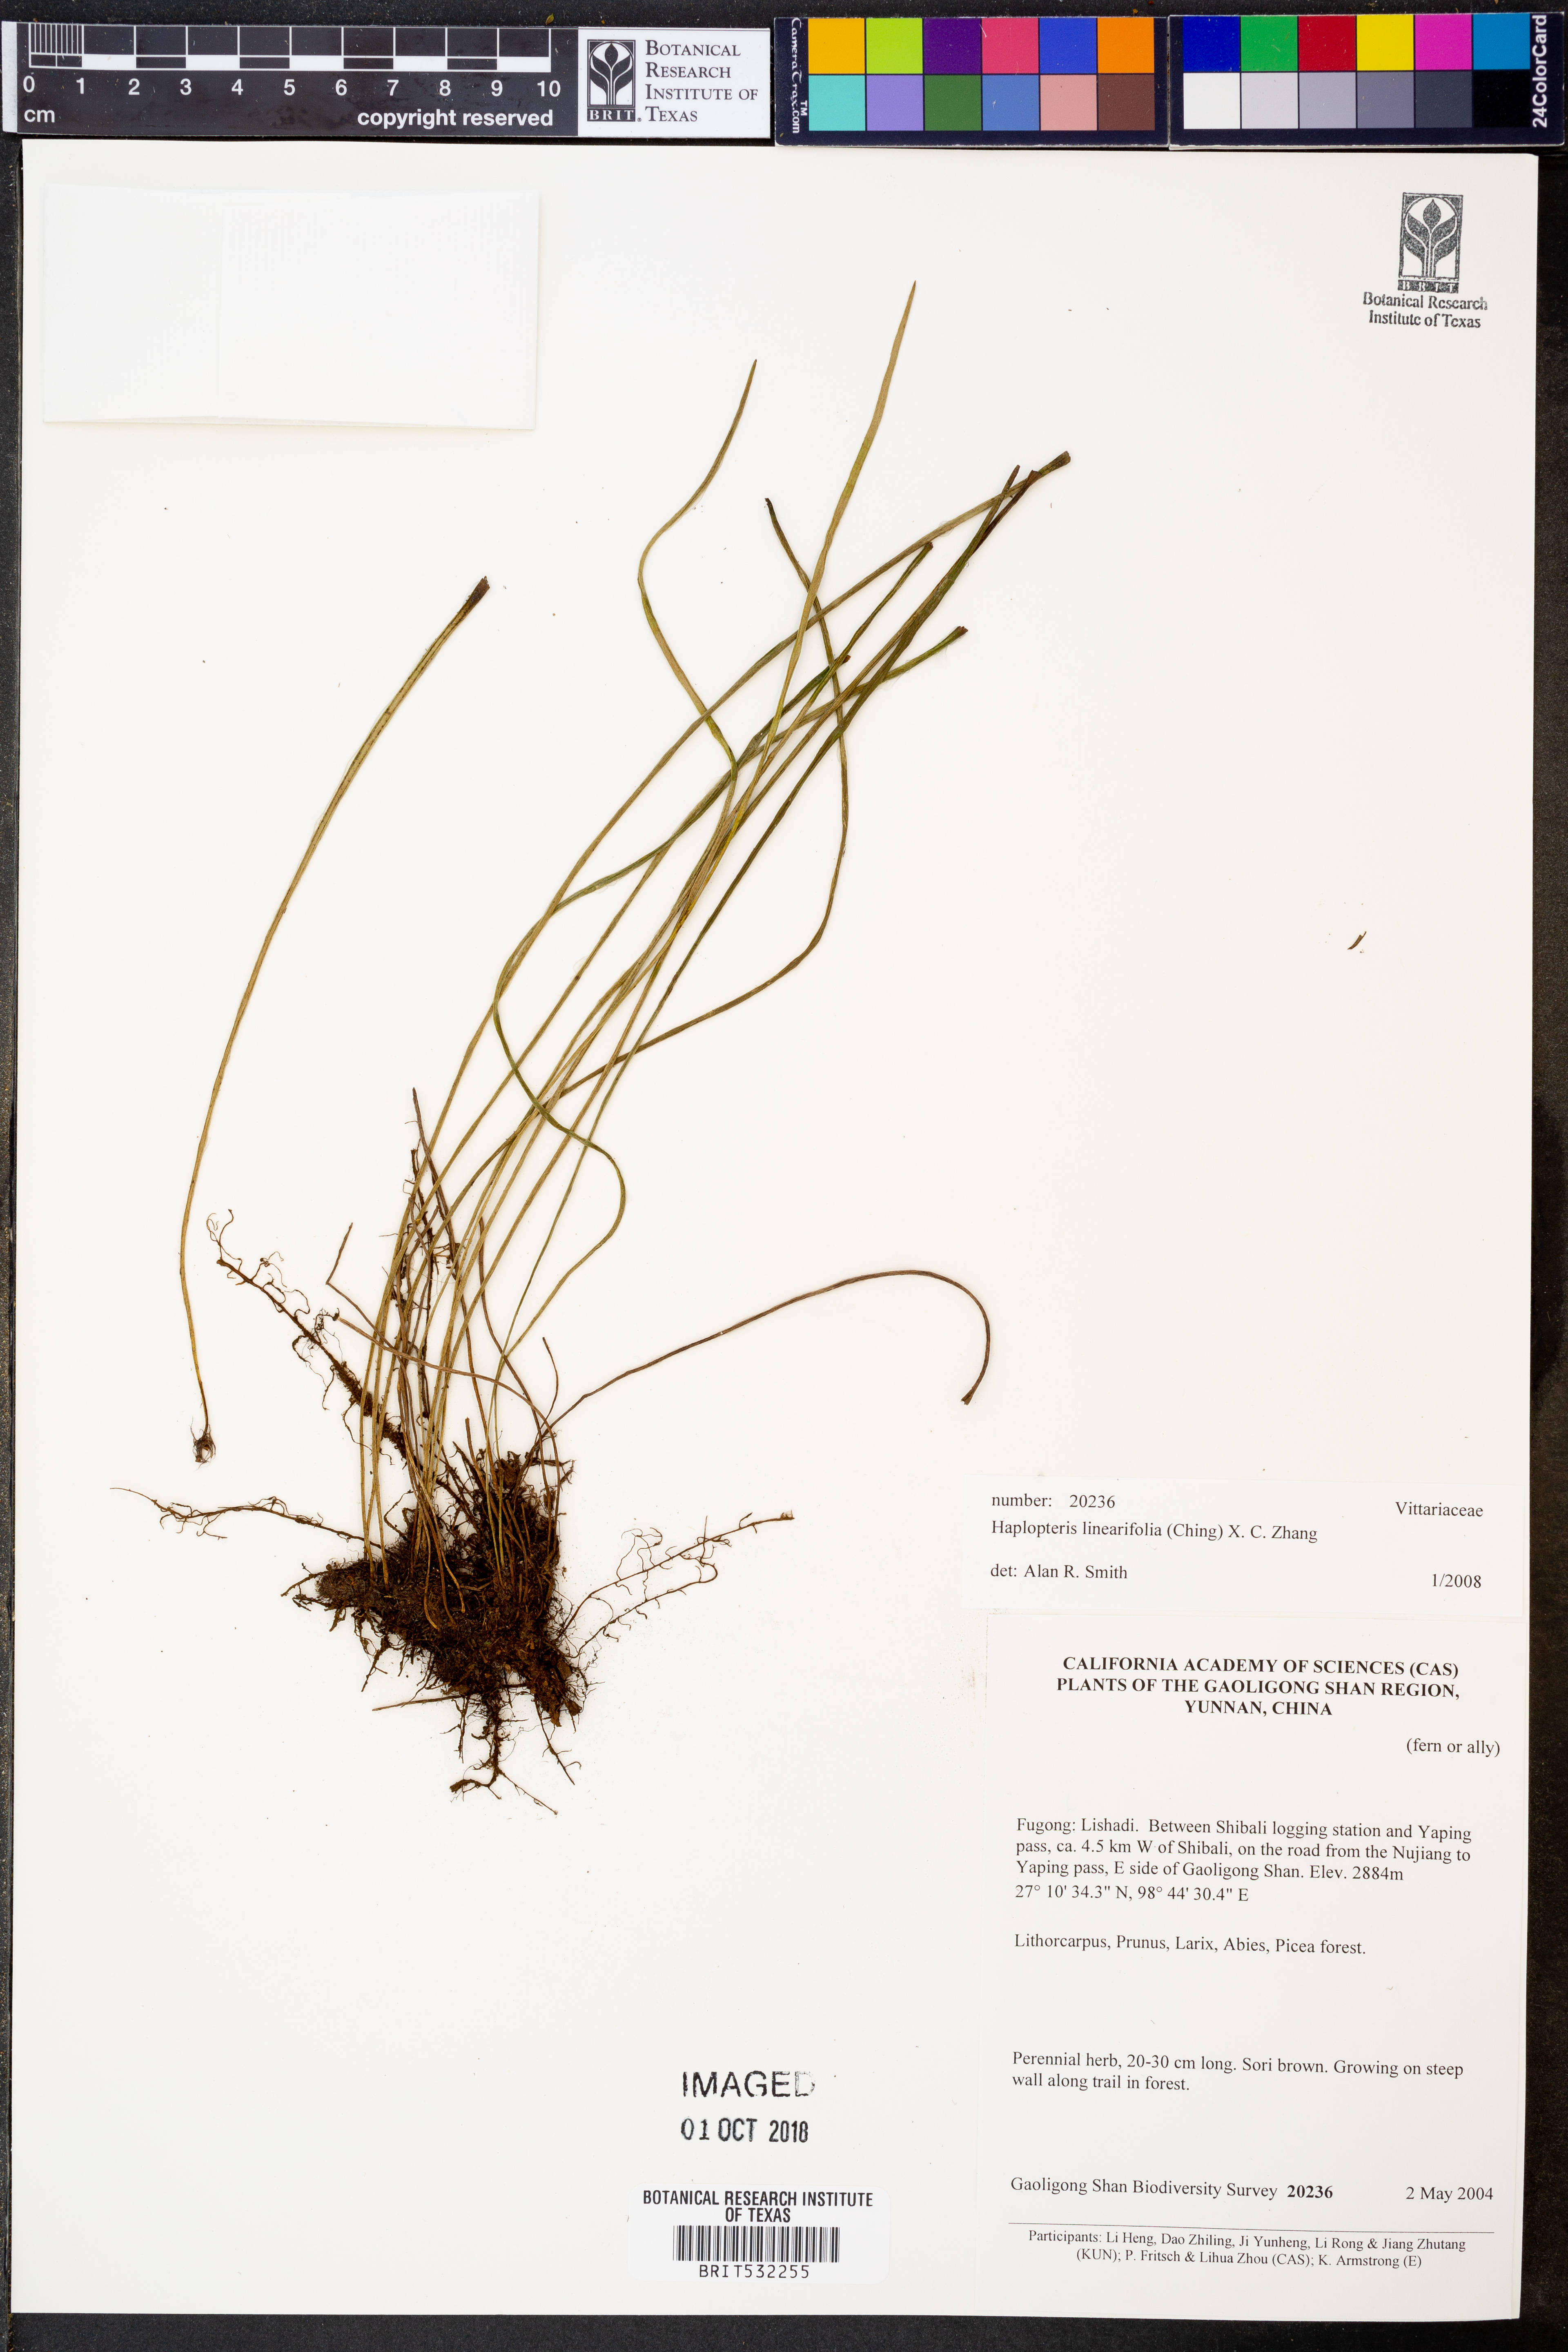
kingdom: Plantae
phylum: Tracheophyta
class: Polypodiopsida
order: Polypodiales
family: Pteridaceae
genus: Haplopteris
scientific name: Haplopteris linearifolia
